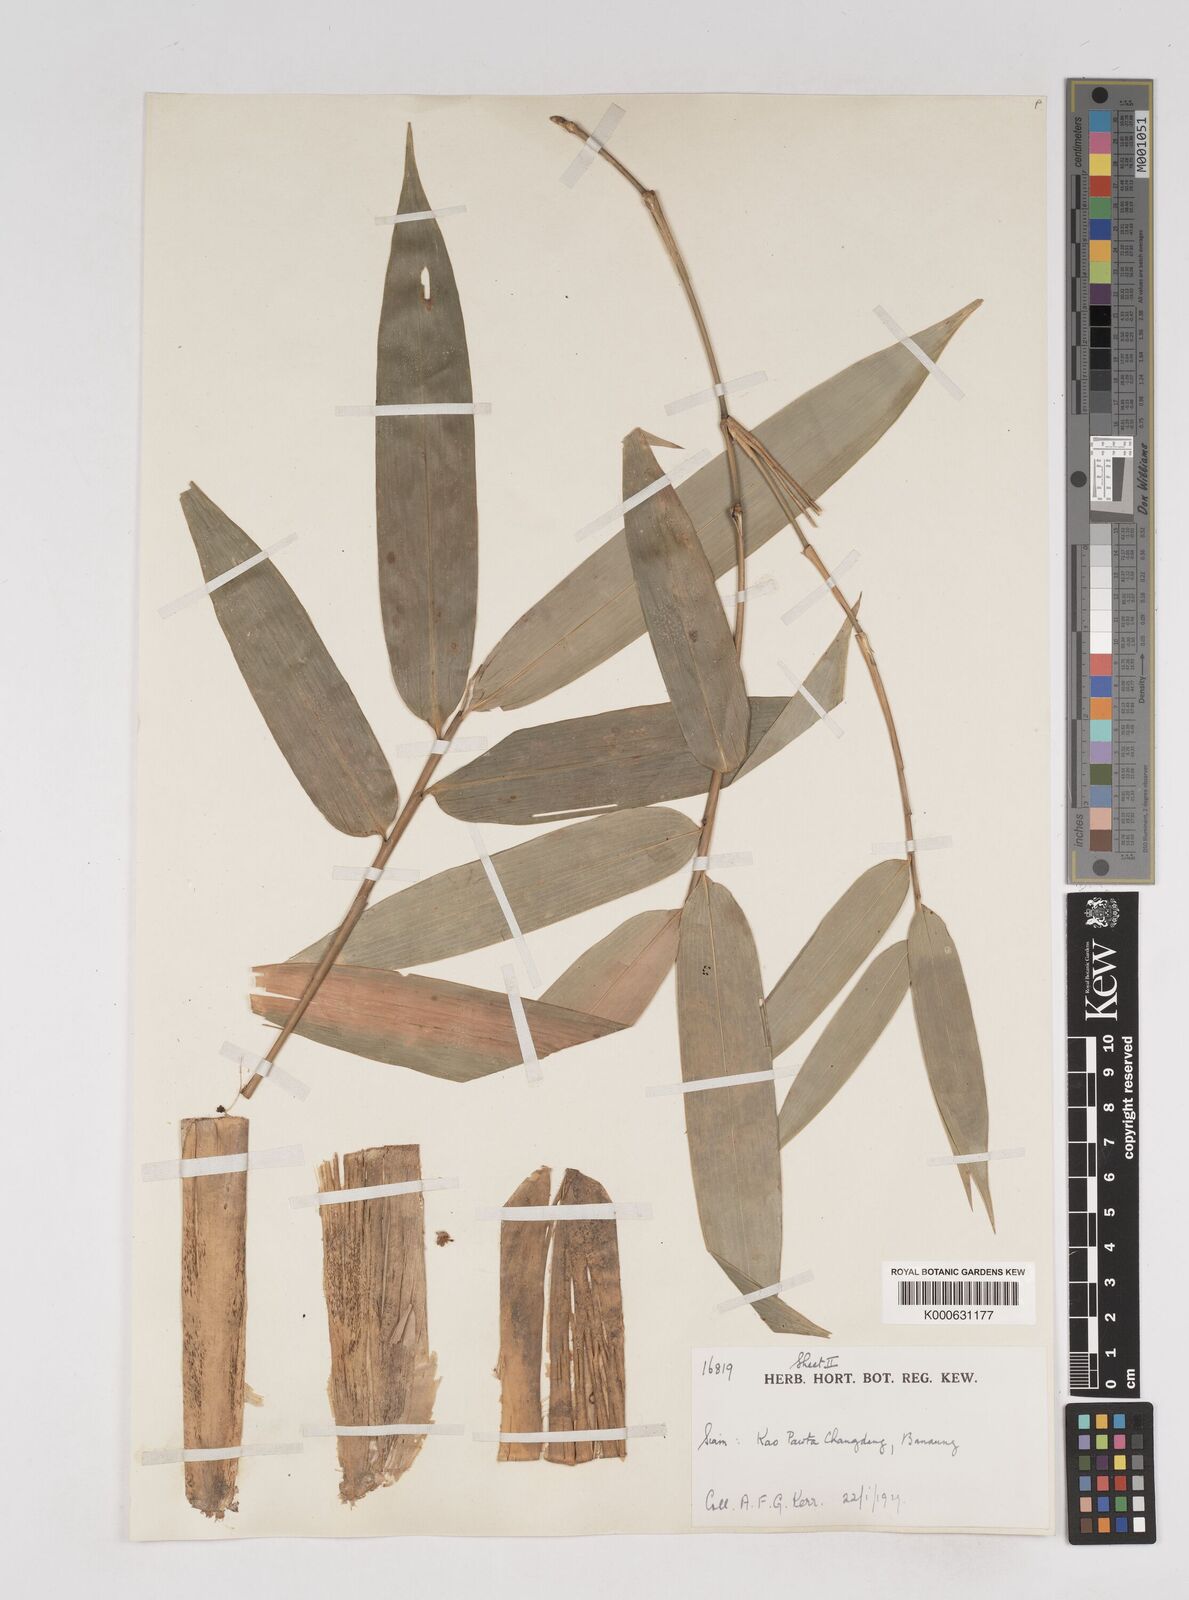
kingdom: Plantae
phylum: Tracheophyta
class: Liliopsida
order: Poales
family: Poaceae
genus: Gigantochloa
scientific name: Gigantochloa
